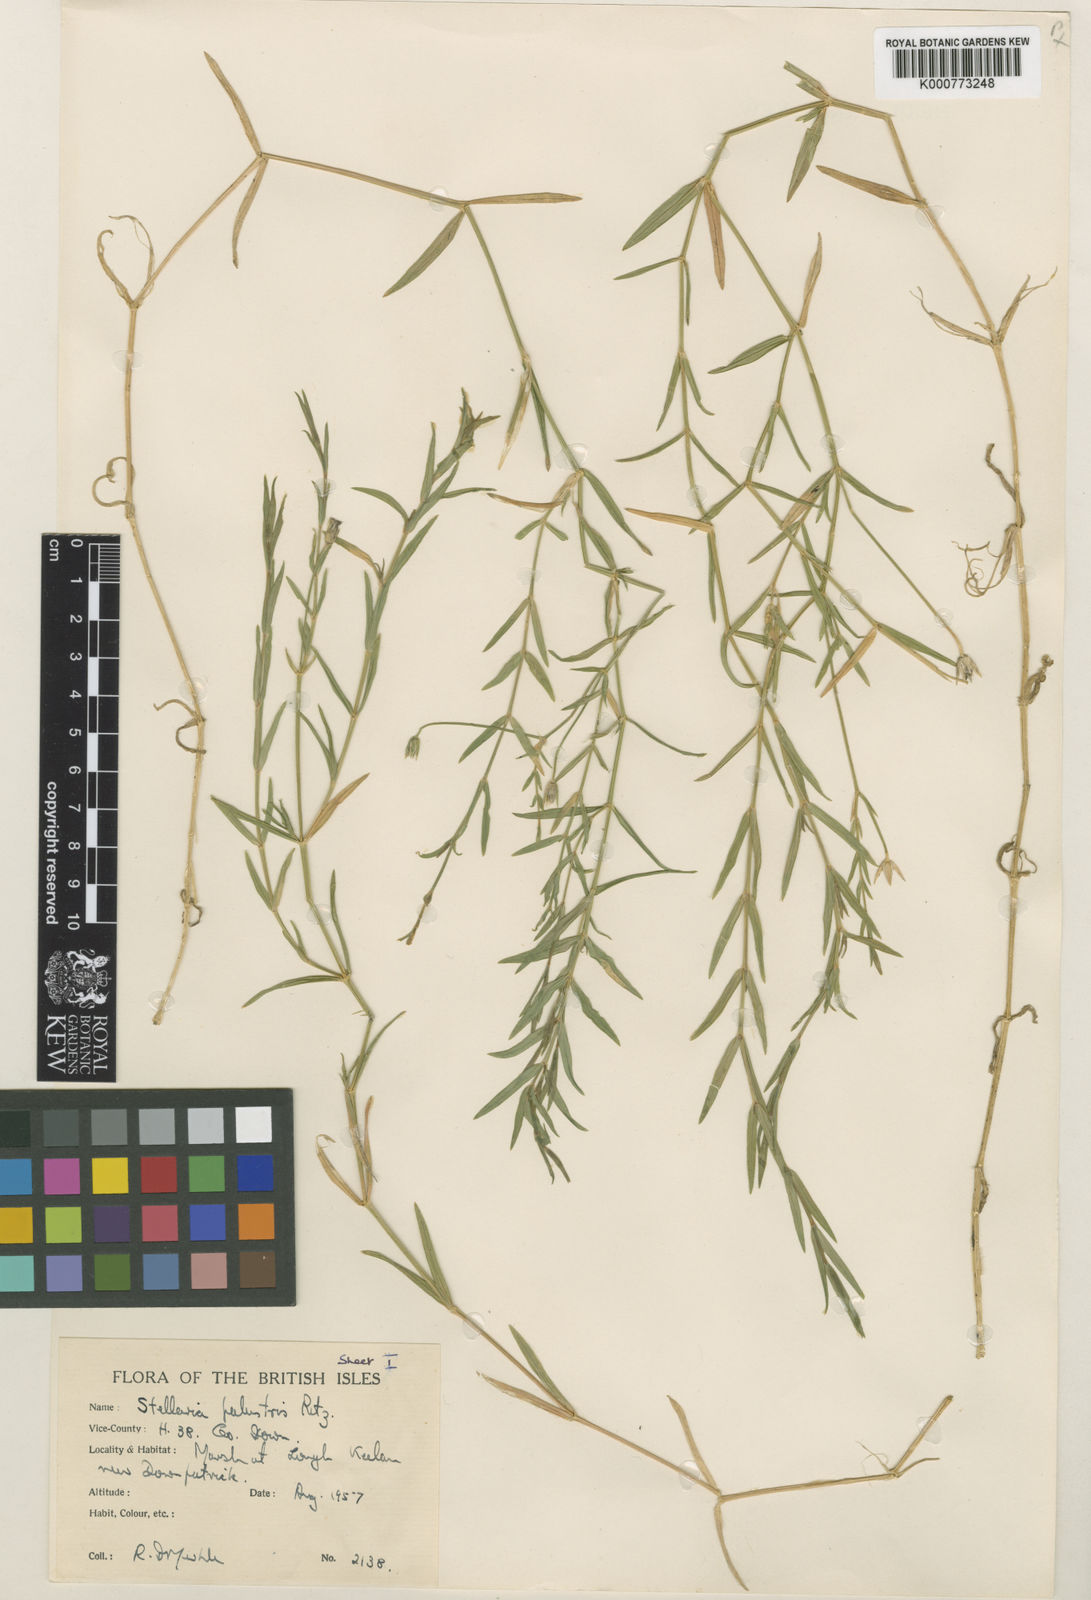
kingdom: Plantae
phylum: Tracheophyta
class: Magnoliopsida
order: Caryophyllales
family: Caryophyllaceae
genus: Stellaria
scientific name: Stellaria
